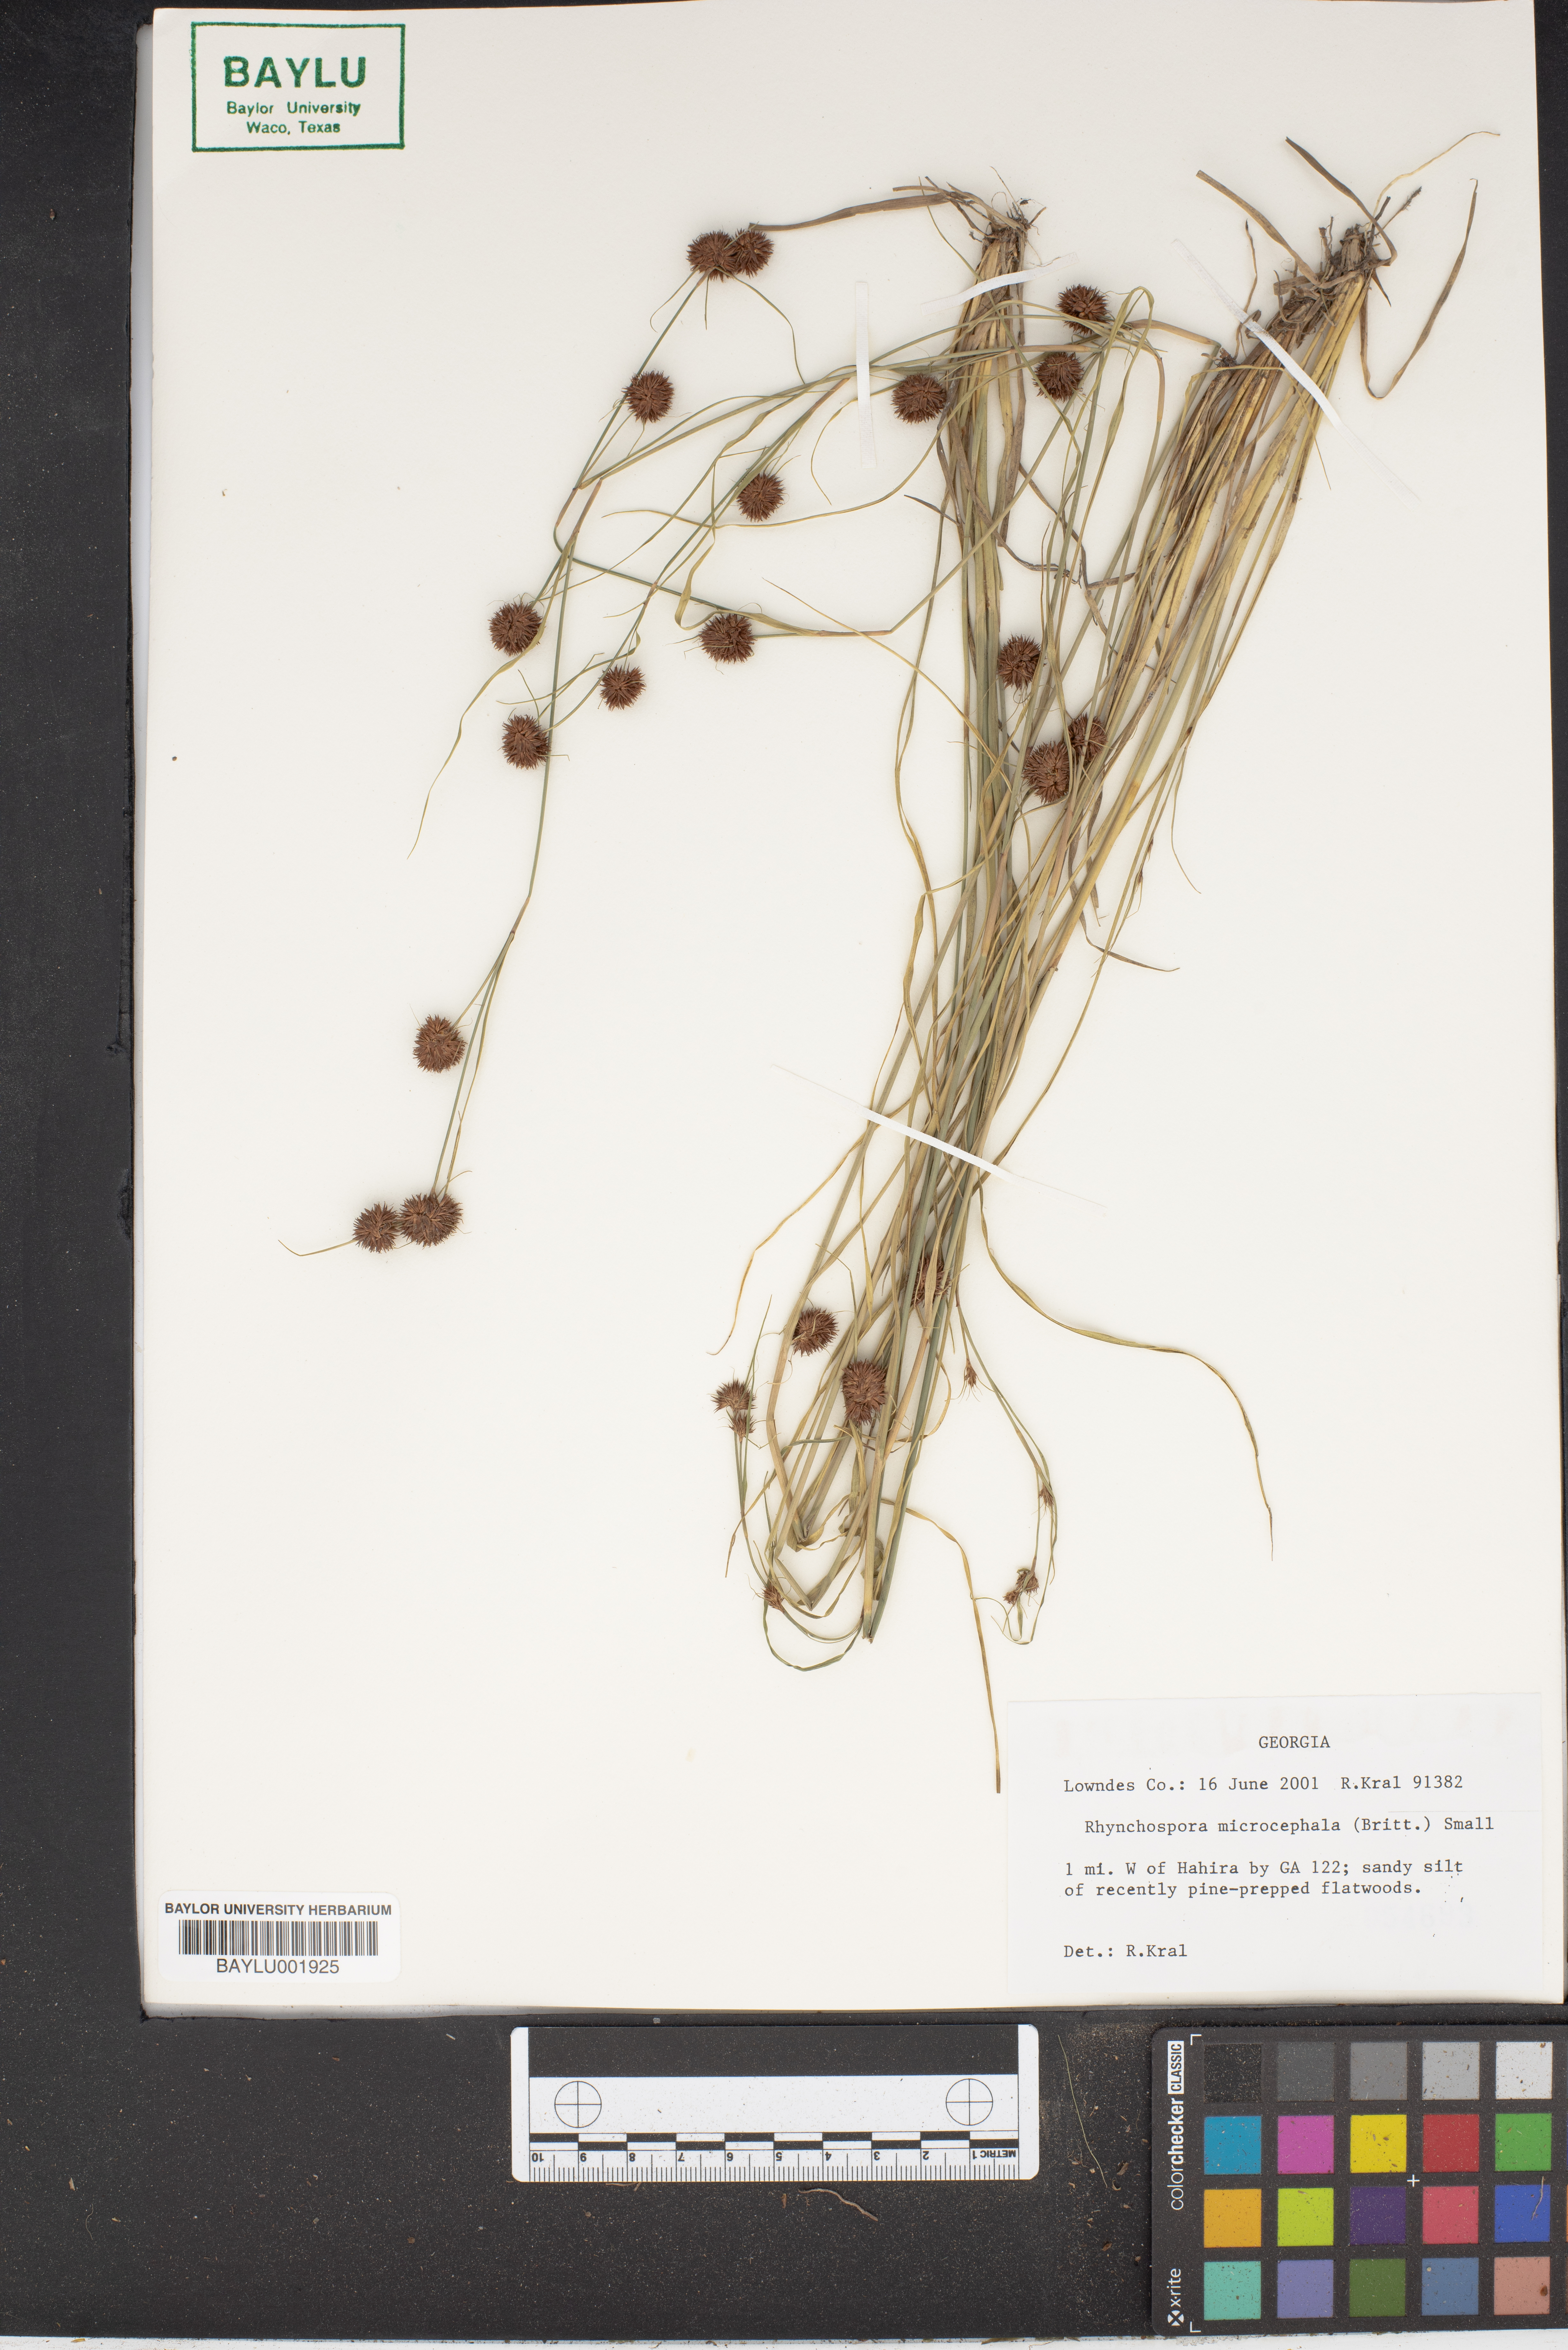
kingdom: Plantae
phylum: Tracheophyta
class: Liliopsida
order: Poales
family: Cyperaceae
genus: Rhynchospora
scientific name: Rhynchospora microcephala
